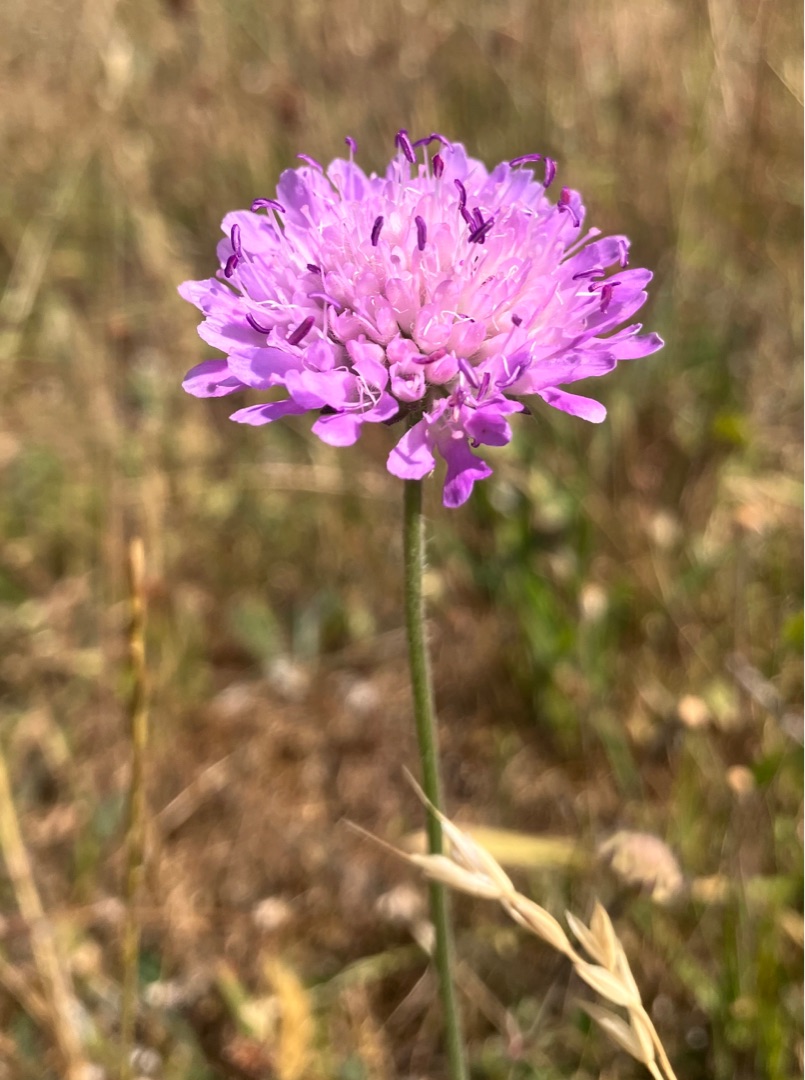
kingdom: Plantae
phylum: Tracheophyta
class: Magnoliopsida
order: Dipsacales
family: Caprifoliaceae
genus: Knautia
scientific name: Knautia arvensis
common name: Blåhat
